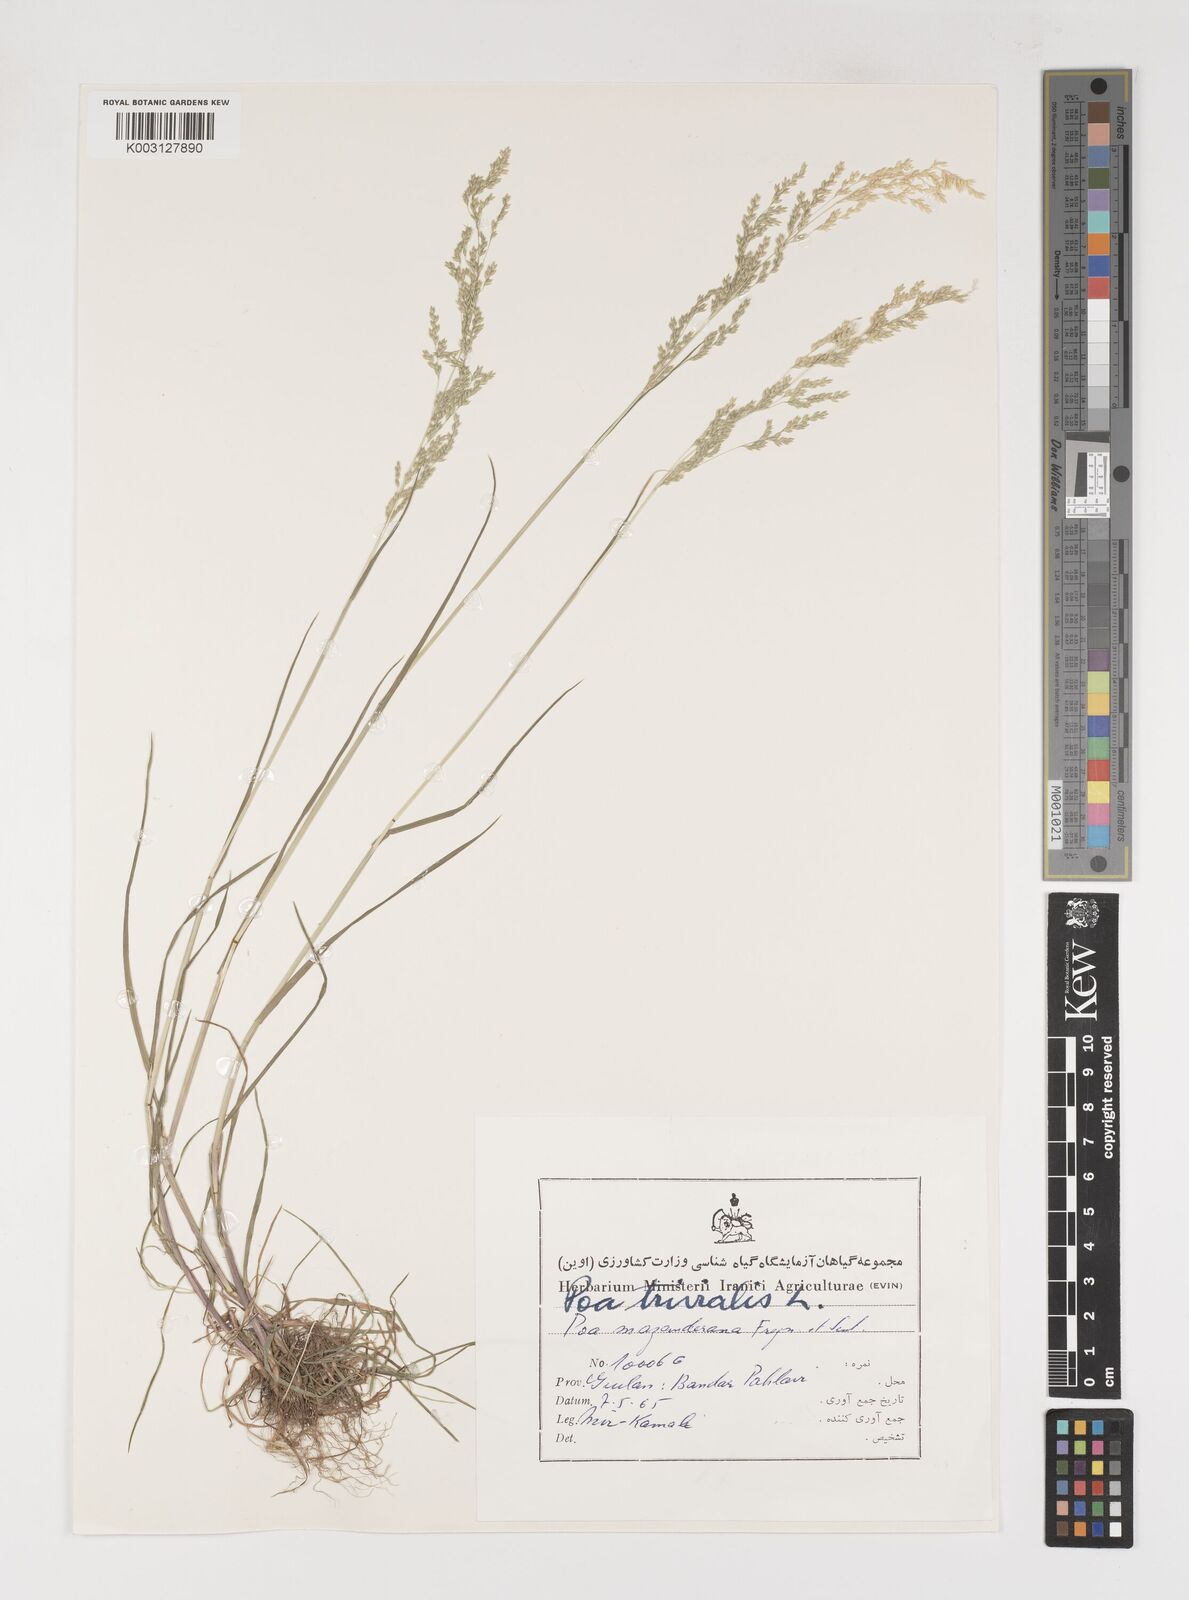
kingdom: Plantae
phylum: Tracheophyta
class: Liliopsida
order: Poales
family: Poaceae
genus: Poa
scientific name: Poa trivialis
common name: Rough bluegrass
